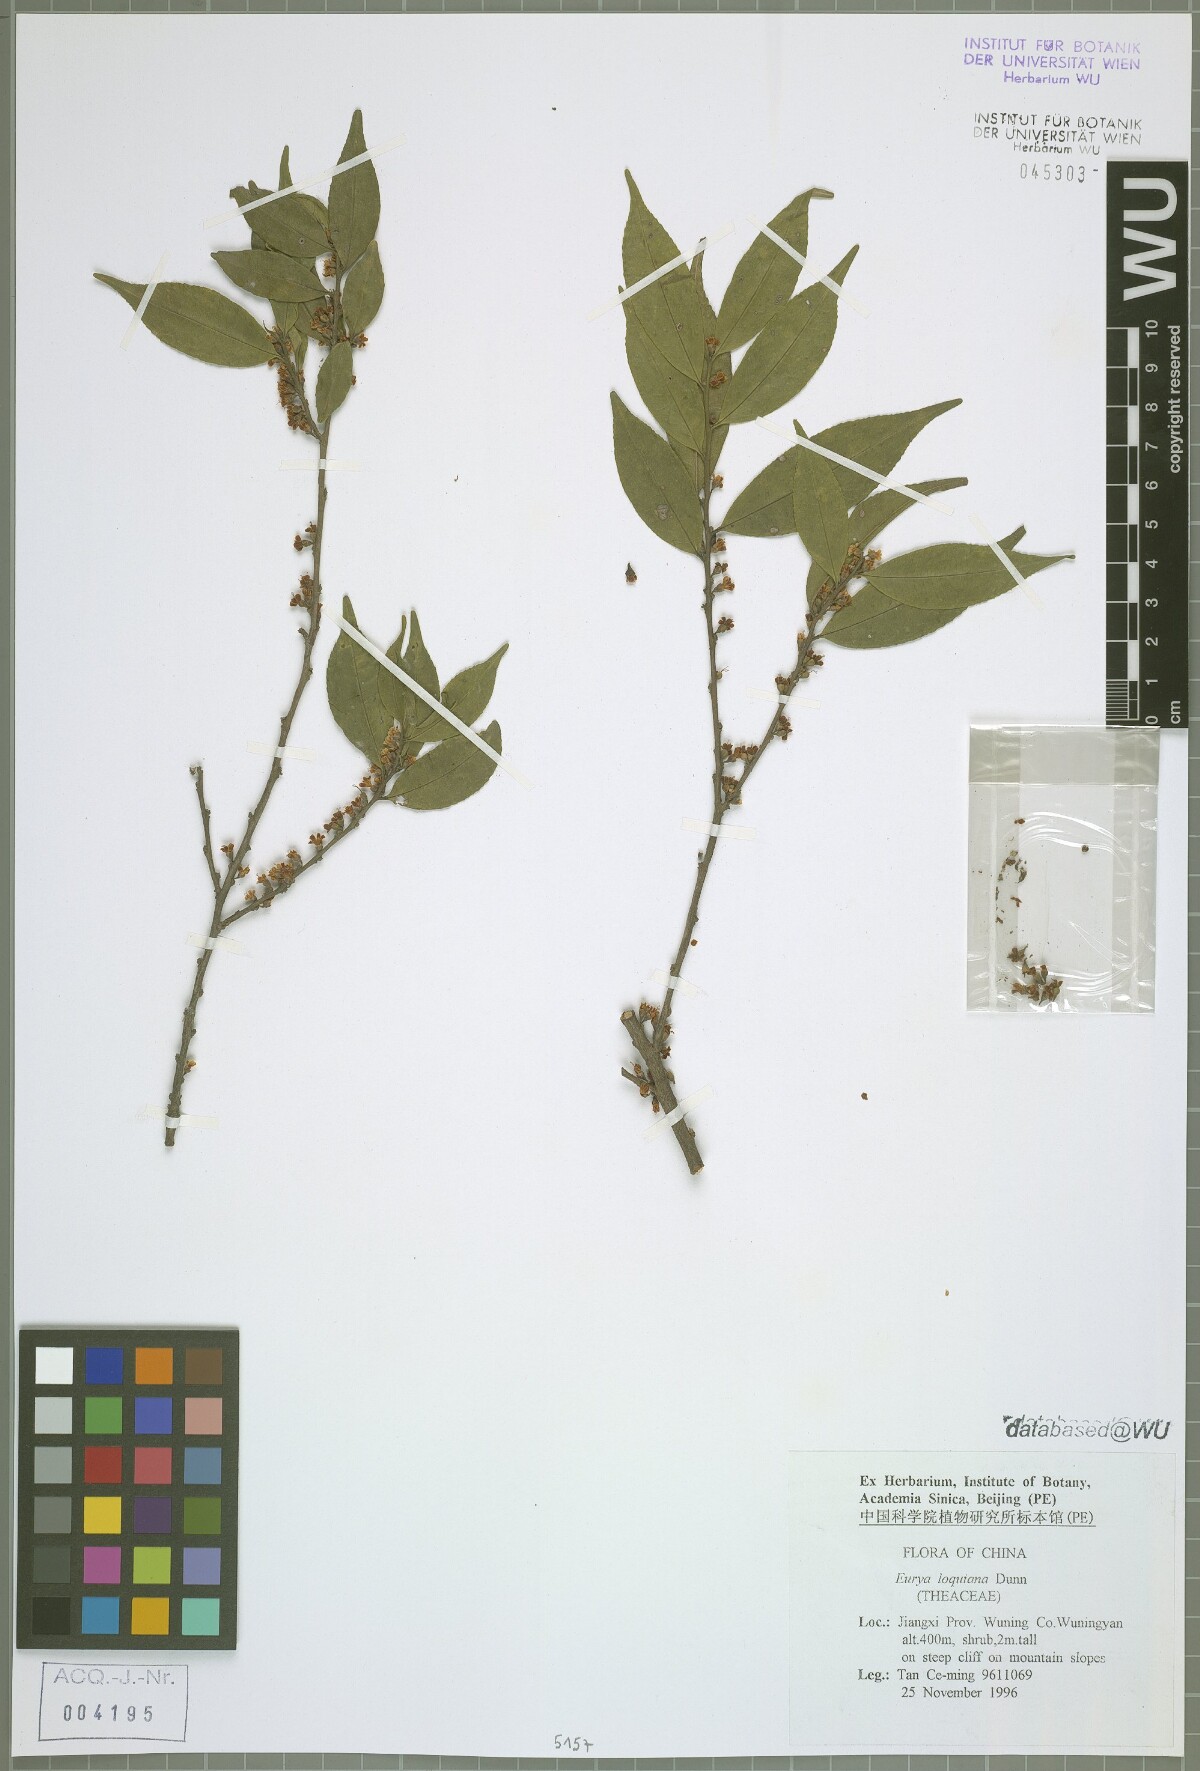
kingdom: Plantae
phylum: Tracheophyta
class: Magnoliopsida
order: Ericales
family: Pentaphylacaceae
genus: Eurya
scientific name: Eurya loquaiana
